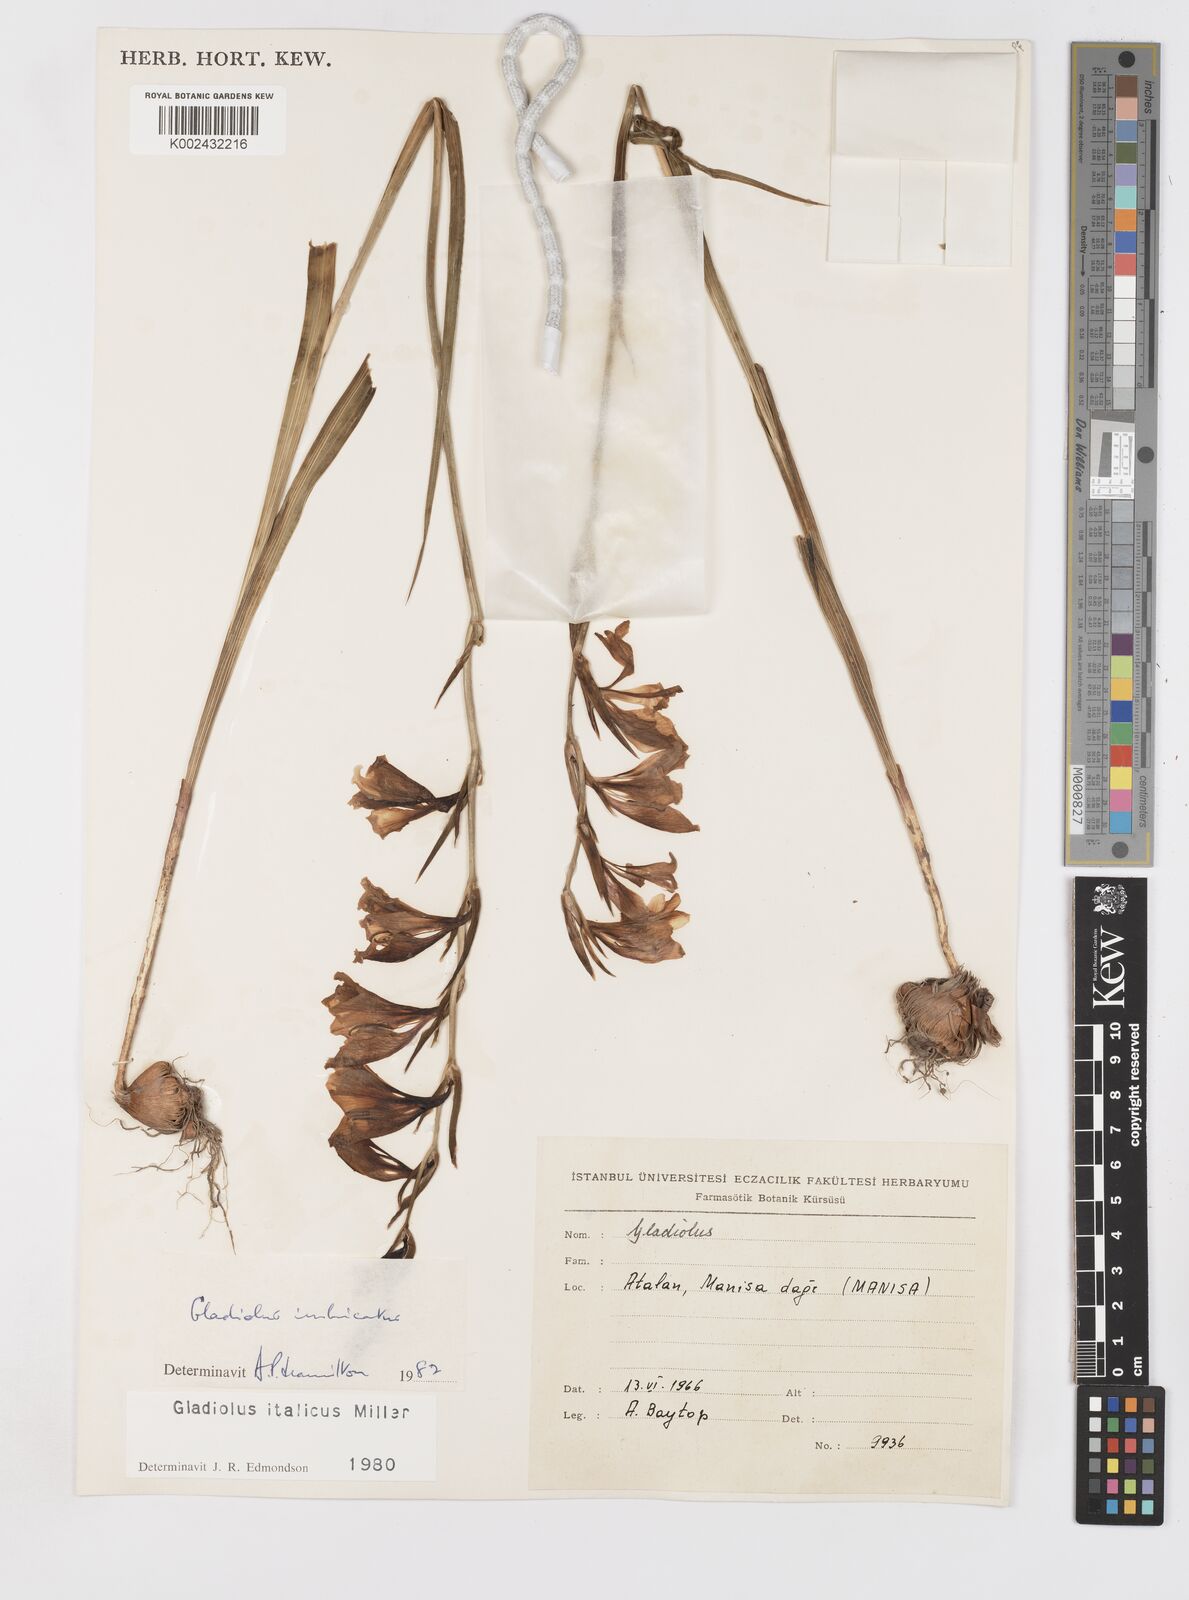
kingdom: Plantae
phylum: Tracheophyta
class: Liliopsida
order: Asparagales
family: Iridaceae
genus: Gladiolus
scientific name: Gladiolus italicus
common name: Field gladiolus
